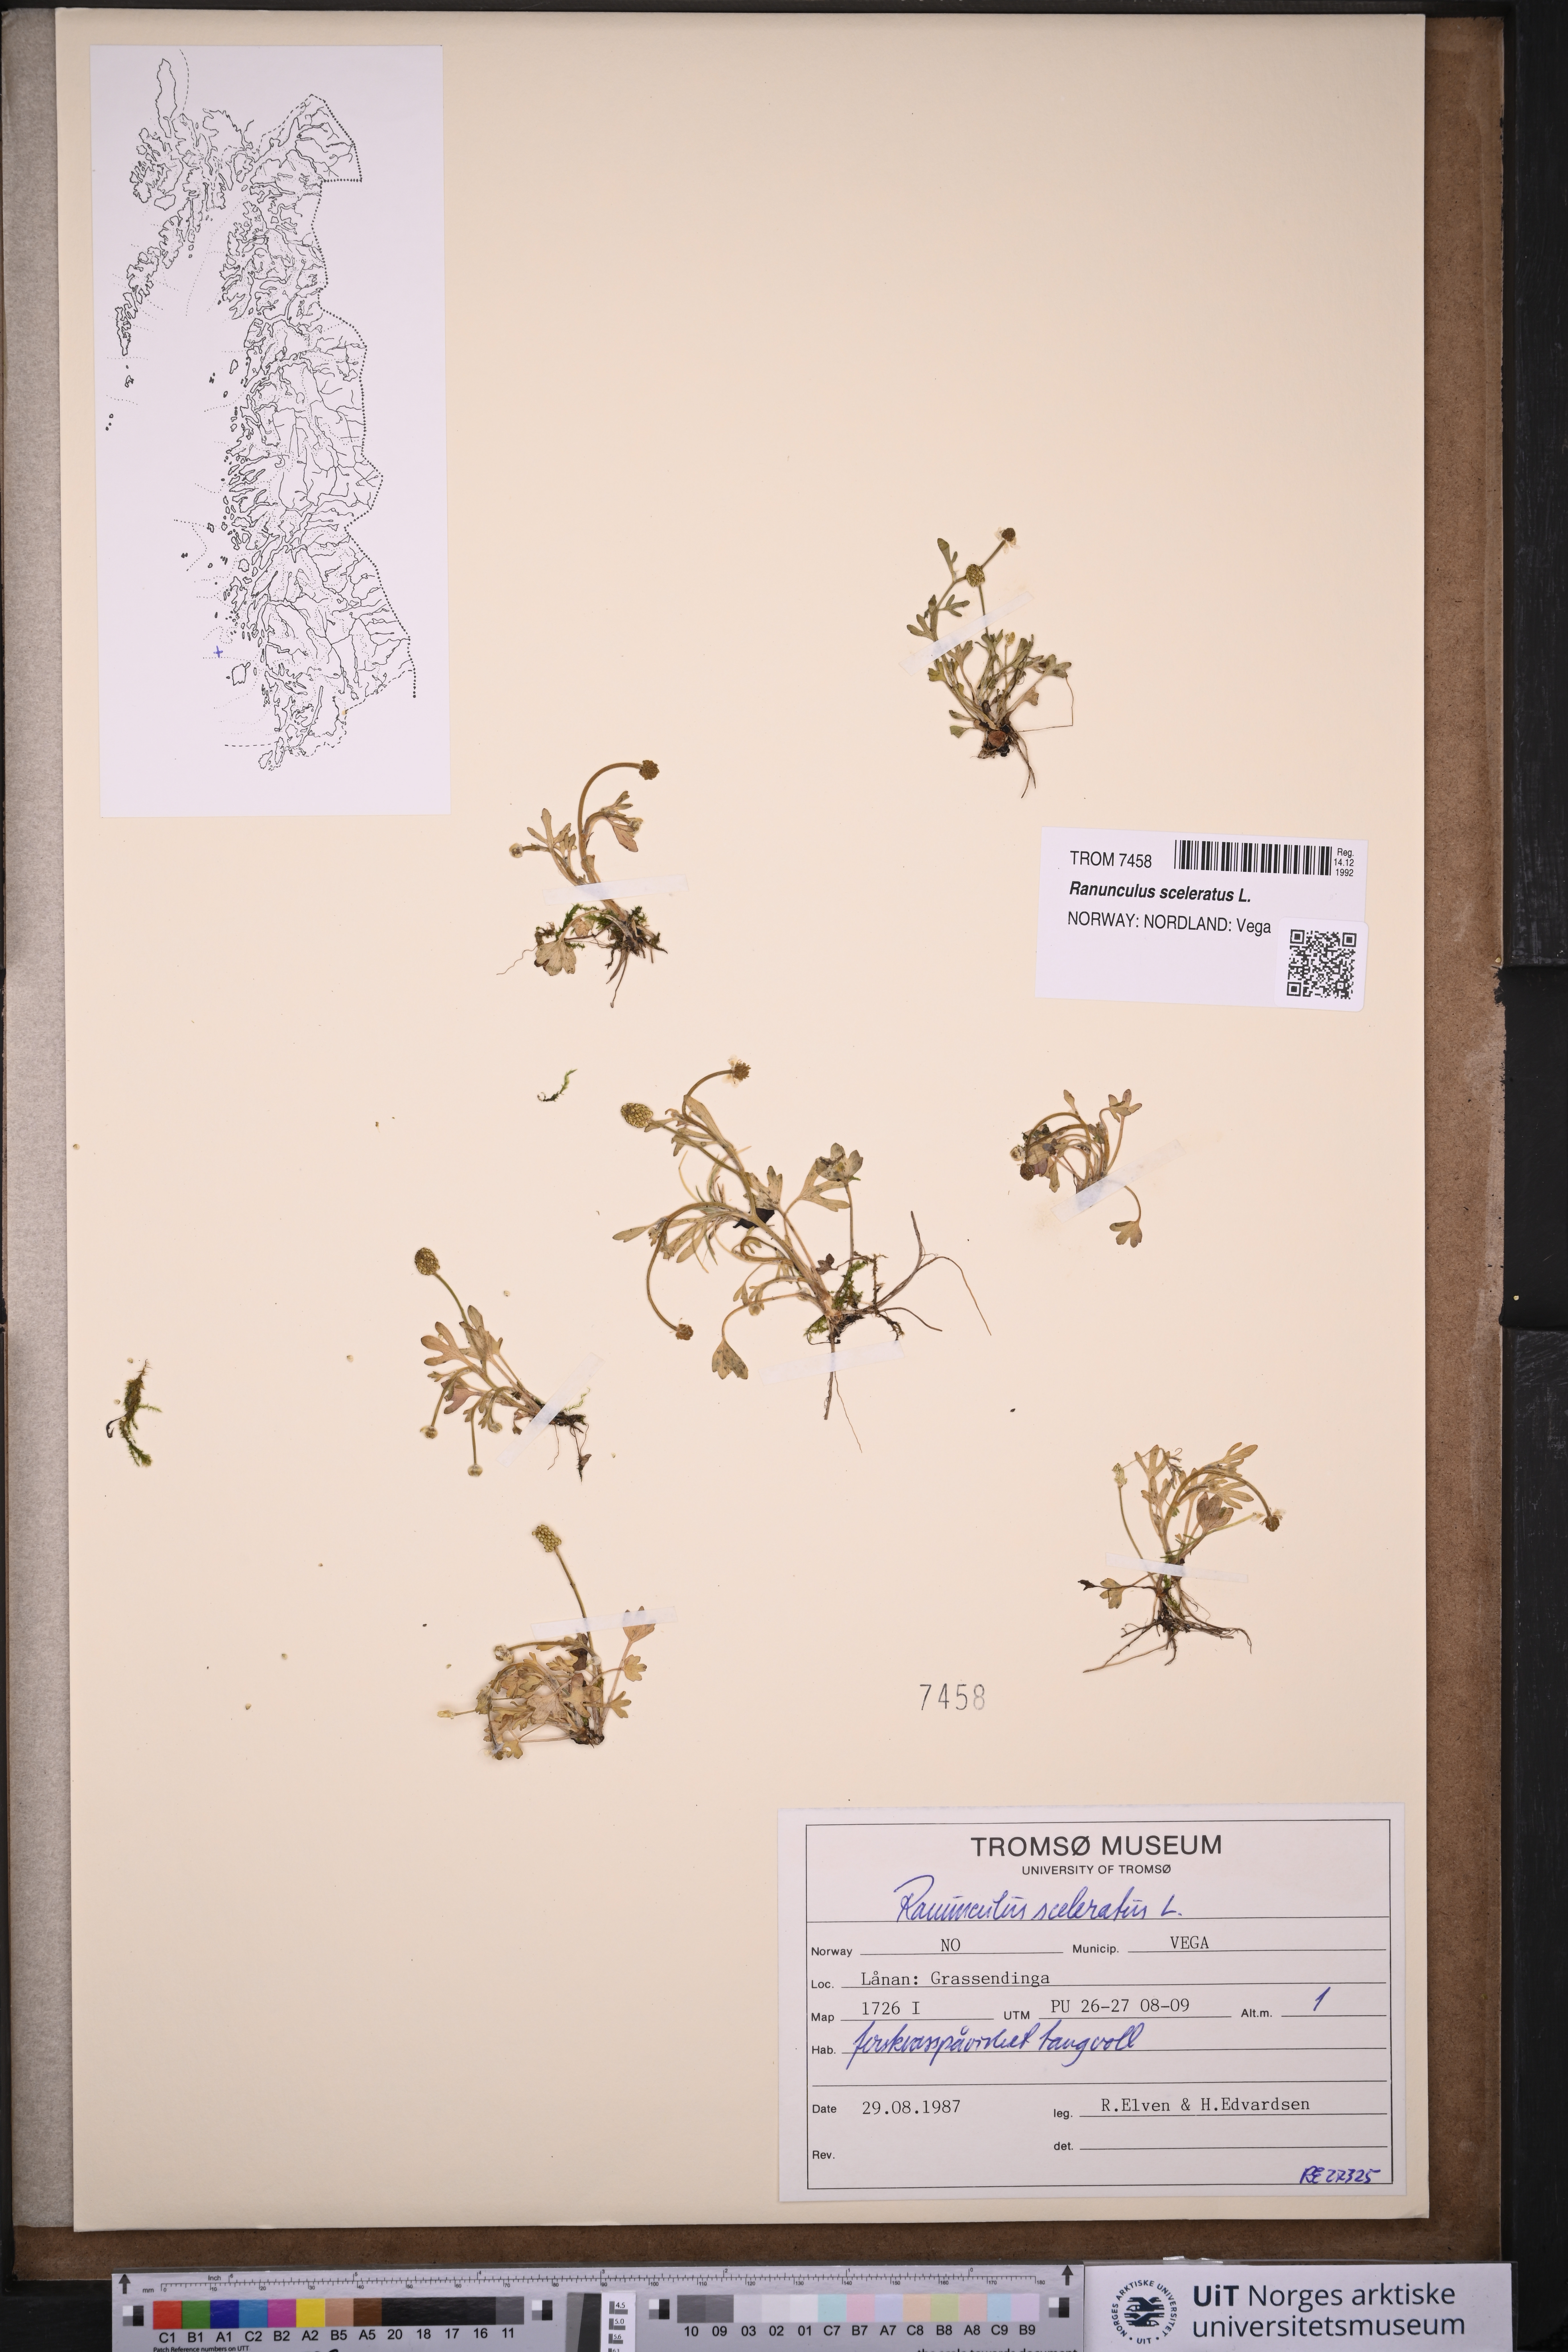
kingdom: Plantae
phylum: Tracheophyta
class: Magnoliopsida
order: Ranunculales
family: Ranunculaceae
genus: Ranunculus
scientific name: Ranunculus sceleratus
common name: Celery-leaved buttercup
